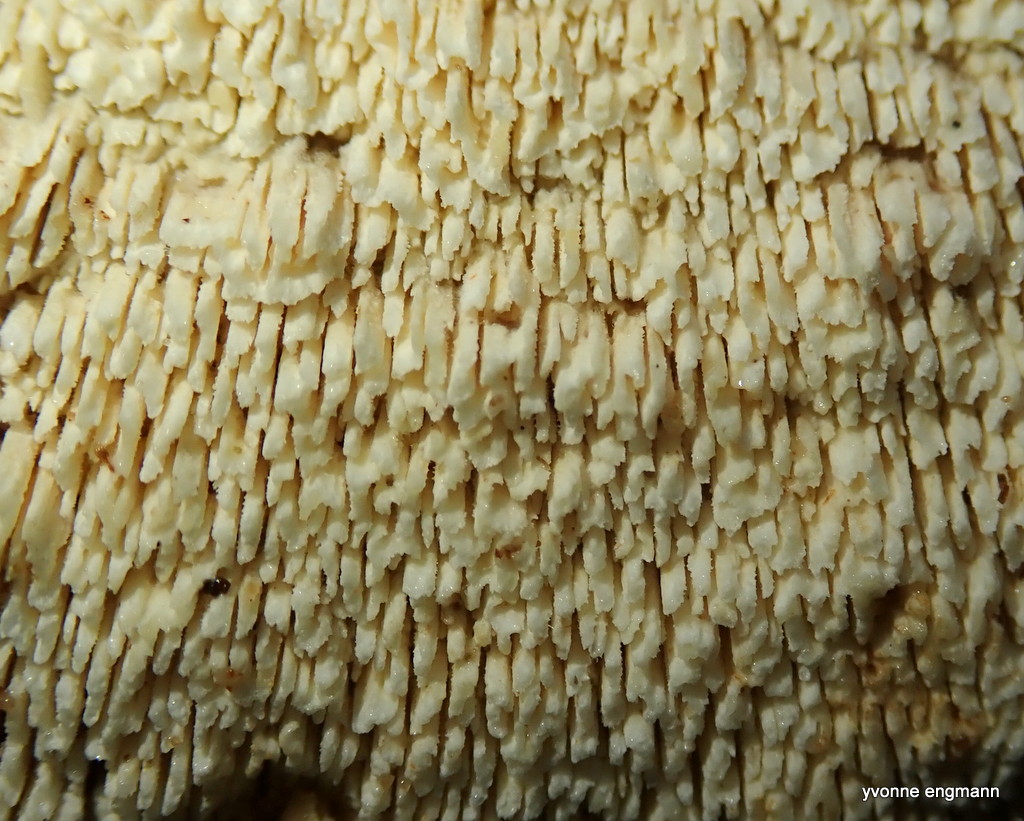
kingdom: Fungi
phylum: Basidiomycota
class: Agaricomycetes
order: Hymenochaetales
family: Schizoporaceae
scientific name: Schizoporaceae
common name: tandsvampfamilien
